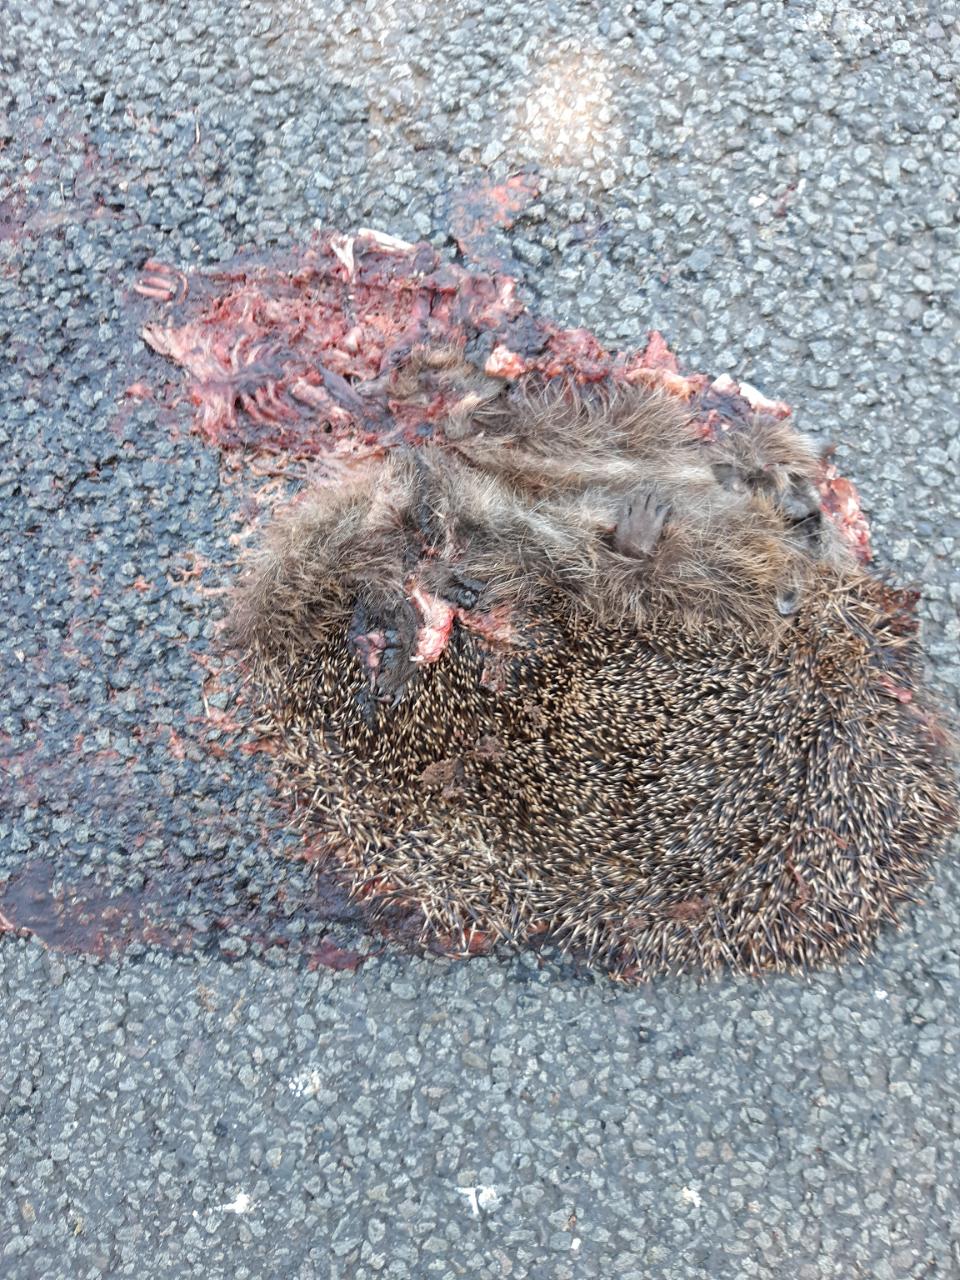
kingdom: Animalia
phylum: Chordata
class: Mammalia
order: Erinaceomorpha
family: Erinaceidae
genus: Erinaceus
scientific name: Erinaceus
